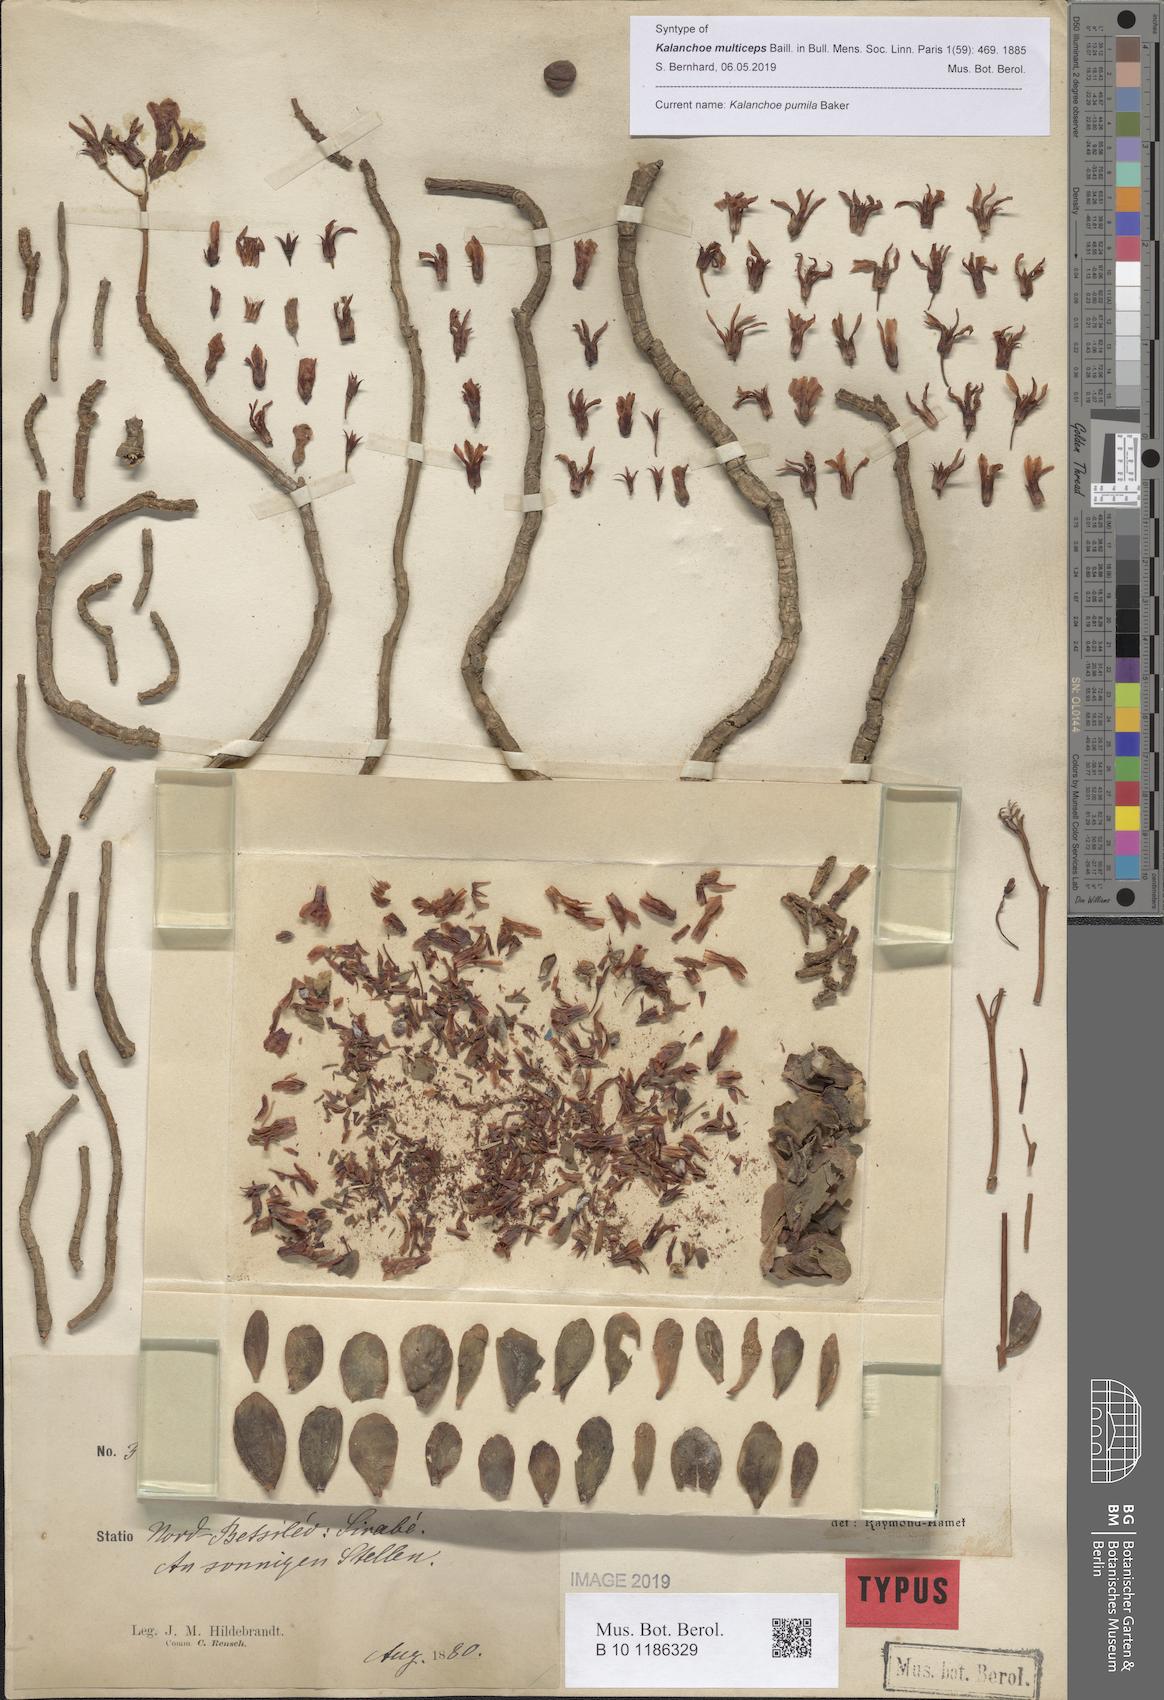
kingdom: Plantae
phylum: Tracheophyta
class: Magnoliopsida
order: Saxifragales
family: Crassulaceae
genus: Kalanchoe
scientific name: Kalanchoe pumila
